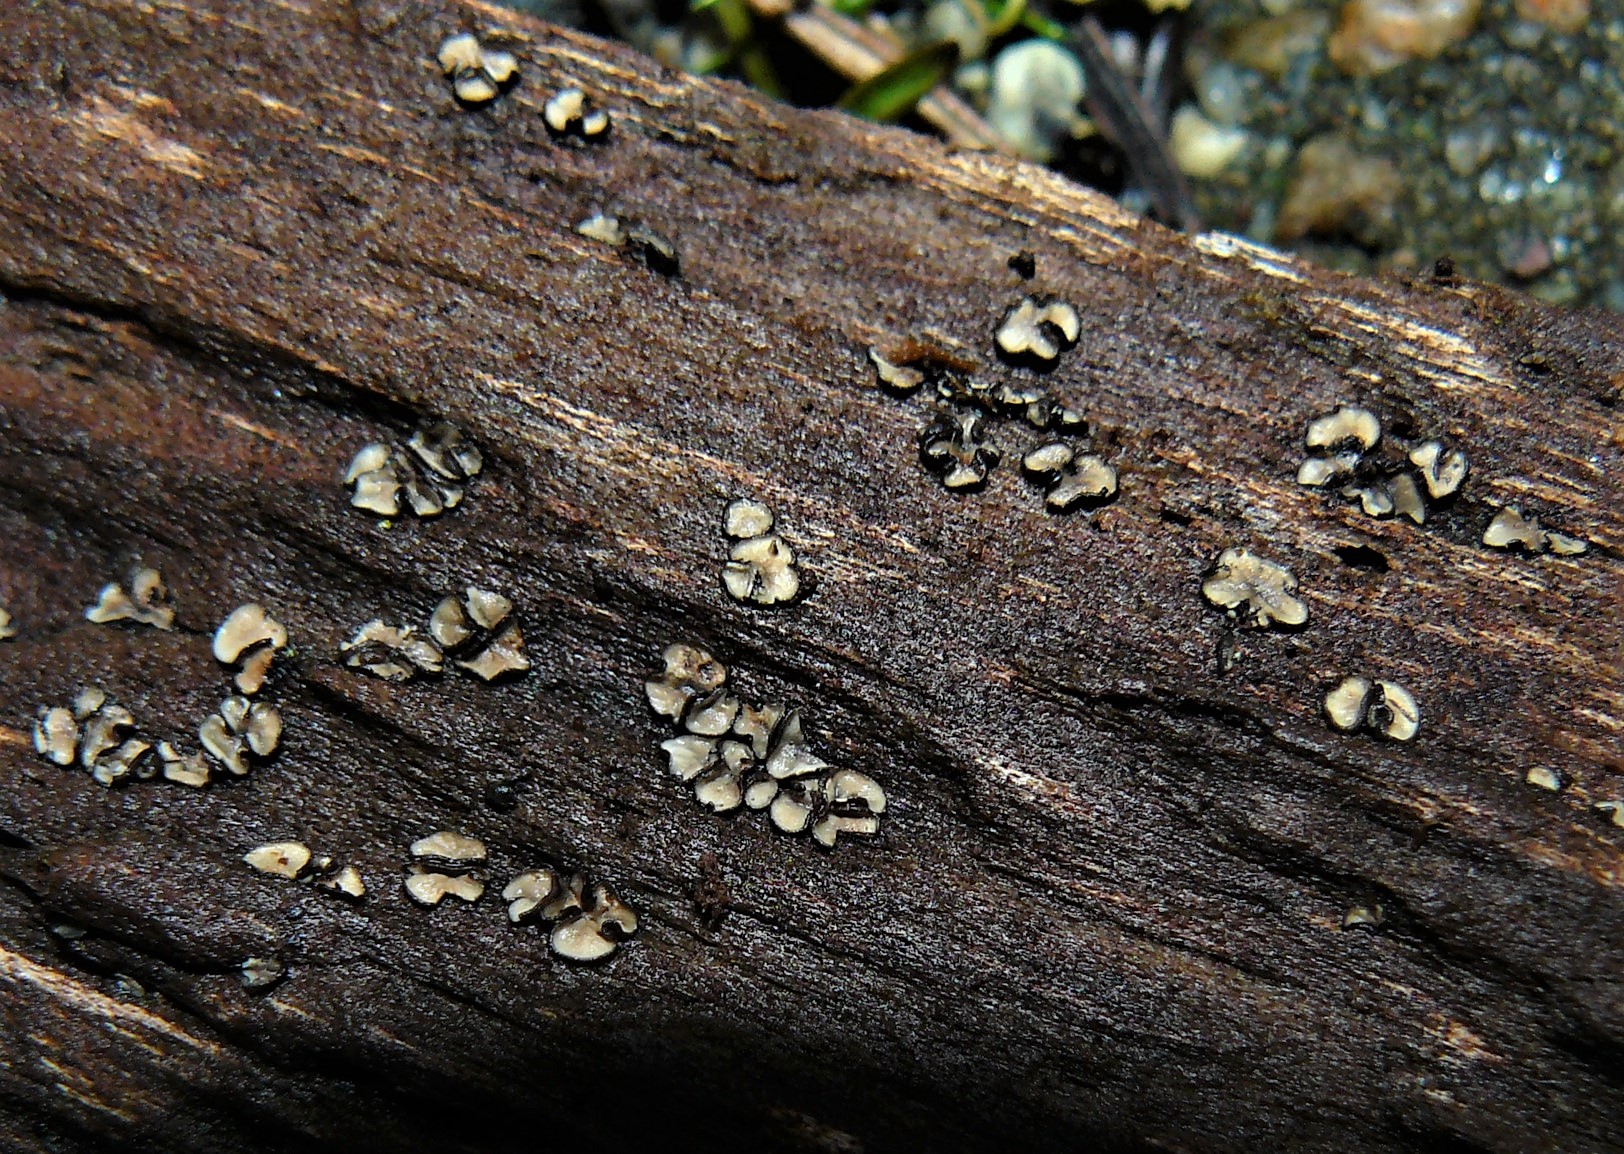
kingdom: Fungi
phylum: Ascomycota
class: Leotiomycetes
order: Helotiales
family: Mollisiaceae
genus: Mollisia
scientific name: Mollisia
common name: gråskive
